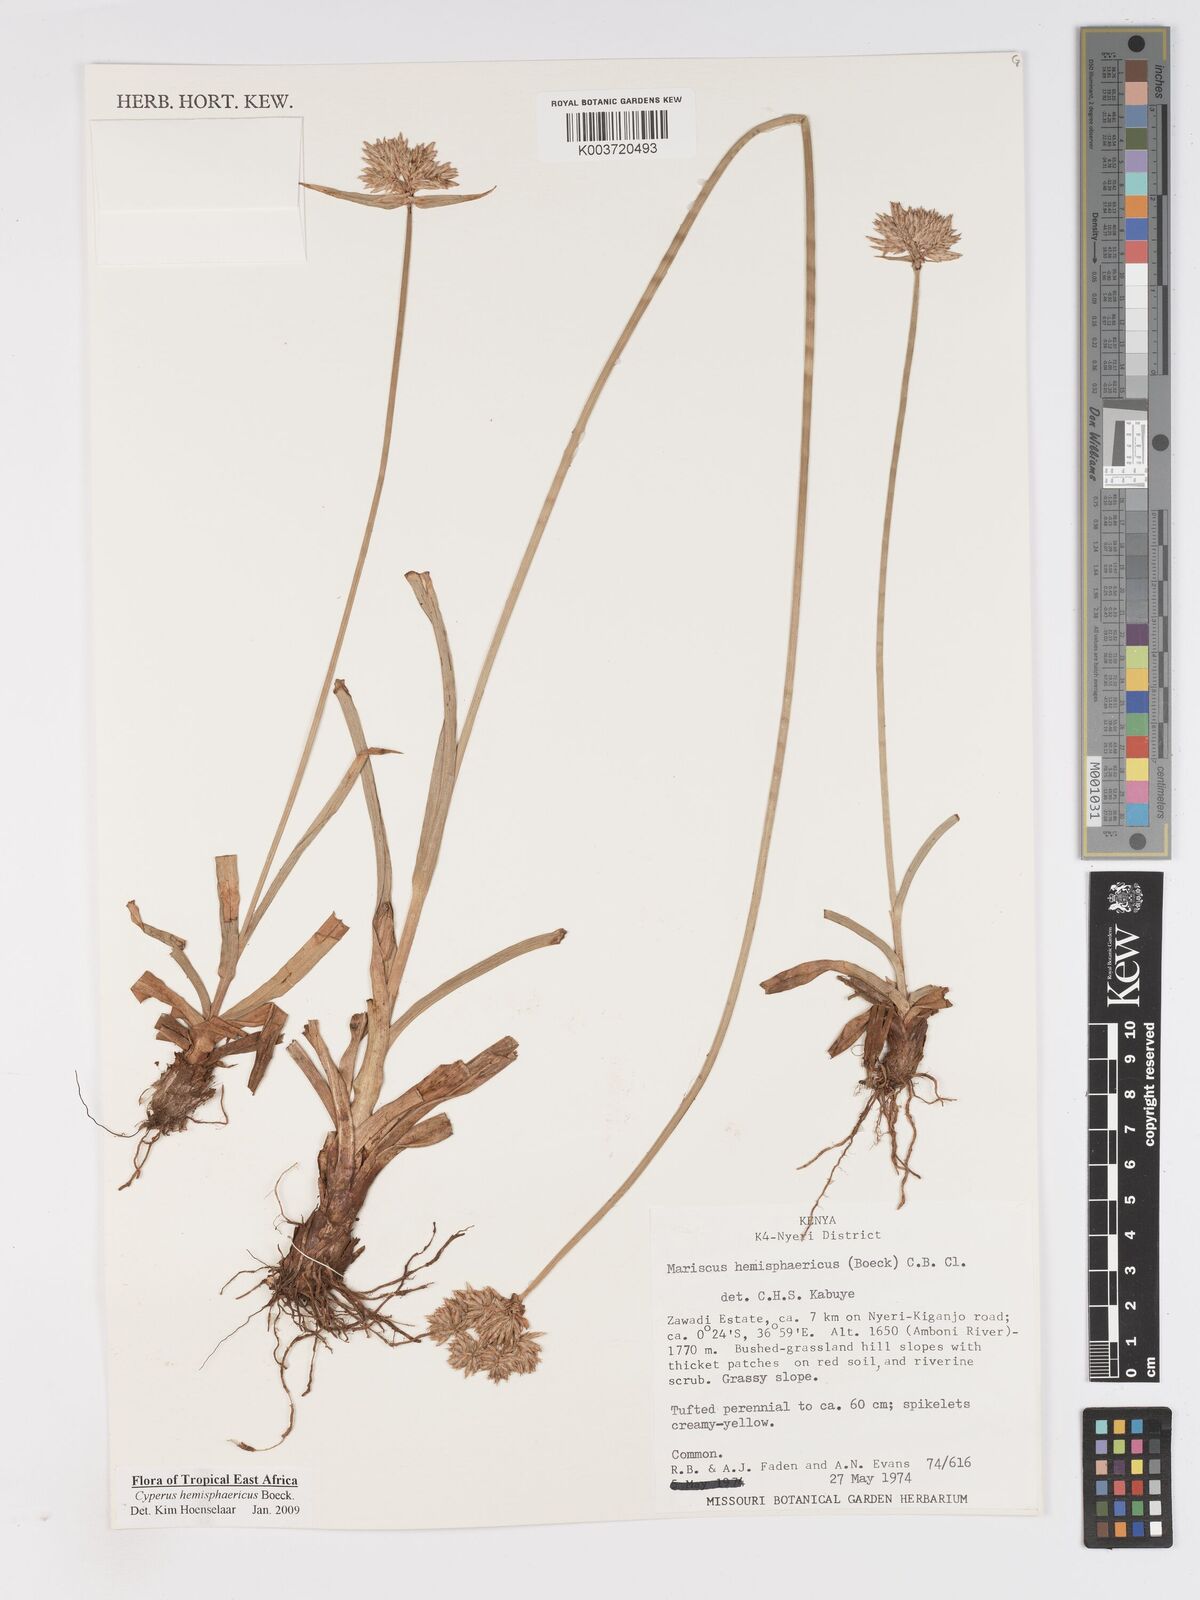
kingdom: Plantae
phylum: Tracheophyta
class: Liliopsida
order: Poales
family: Cyperaceae
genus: Cyperus
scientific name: Cyperus hemisphaericus
